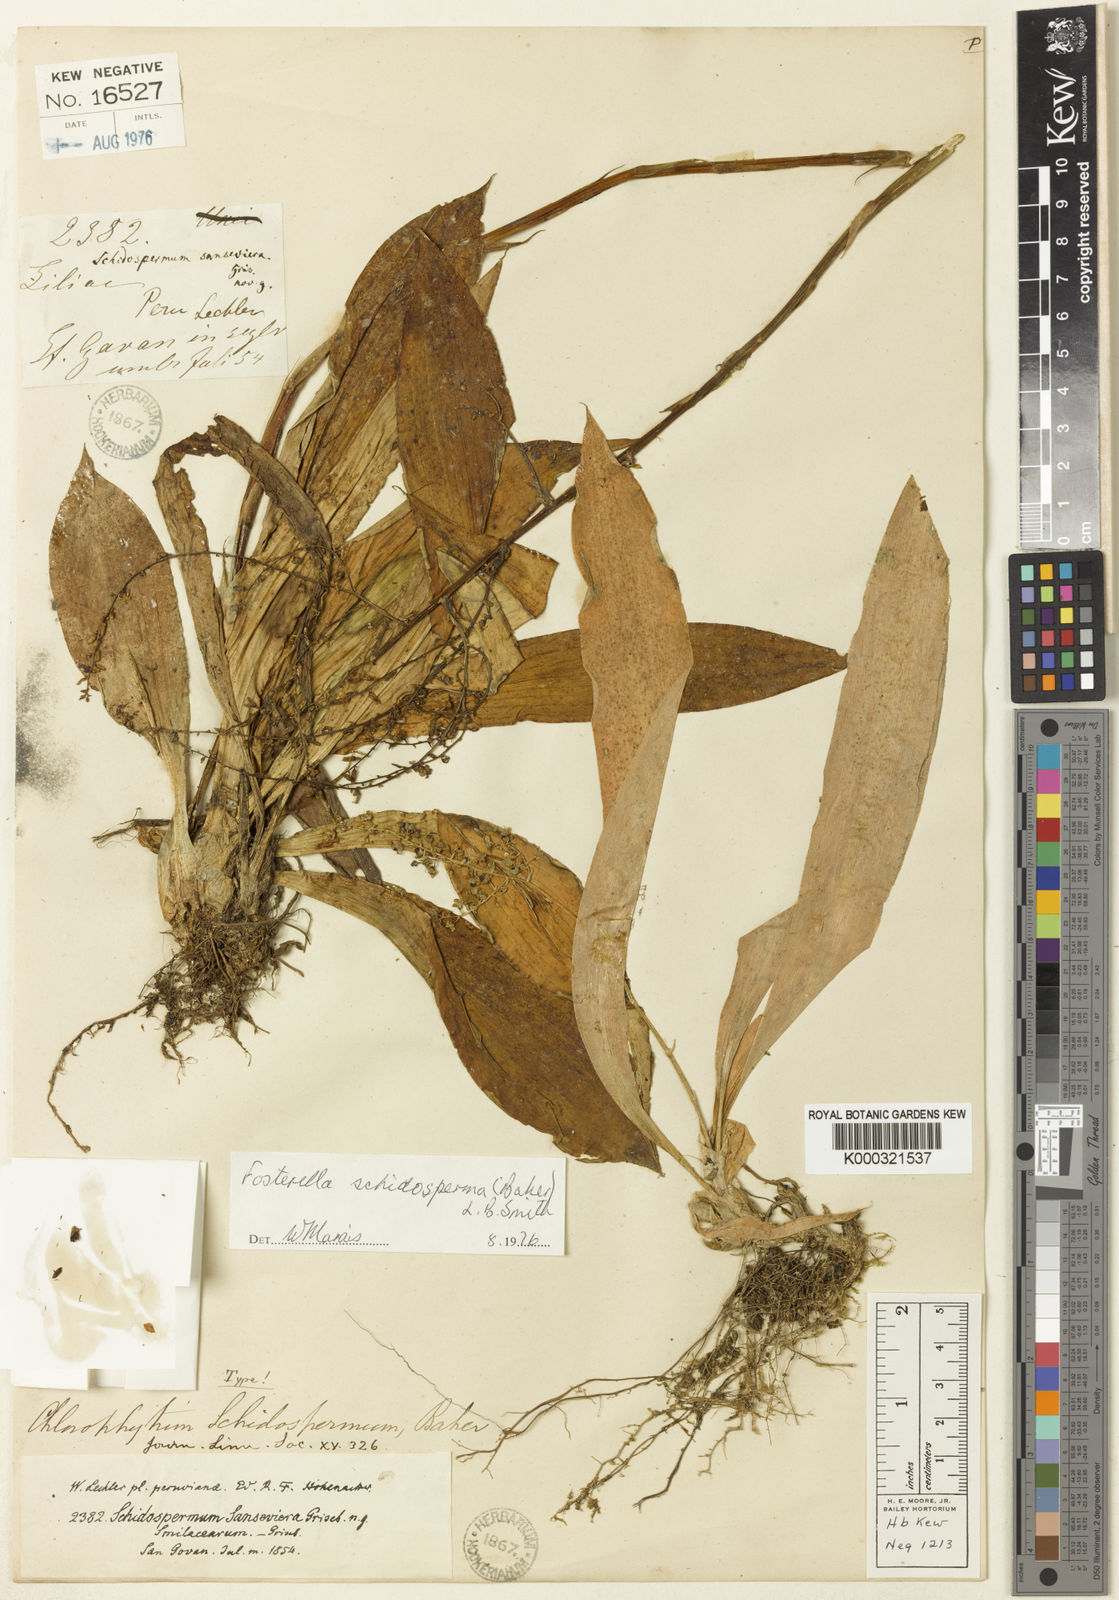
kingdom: Plantae
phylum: Tracheophyta
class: Liliopsida
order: Poales
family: Bromeliaceae
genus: Fosterella
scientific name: Fosterella schidosperma
